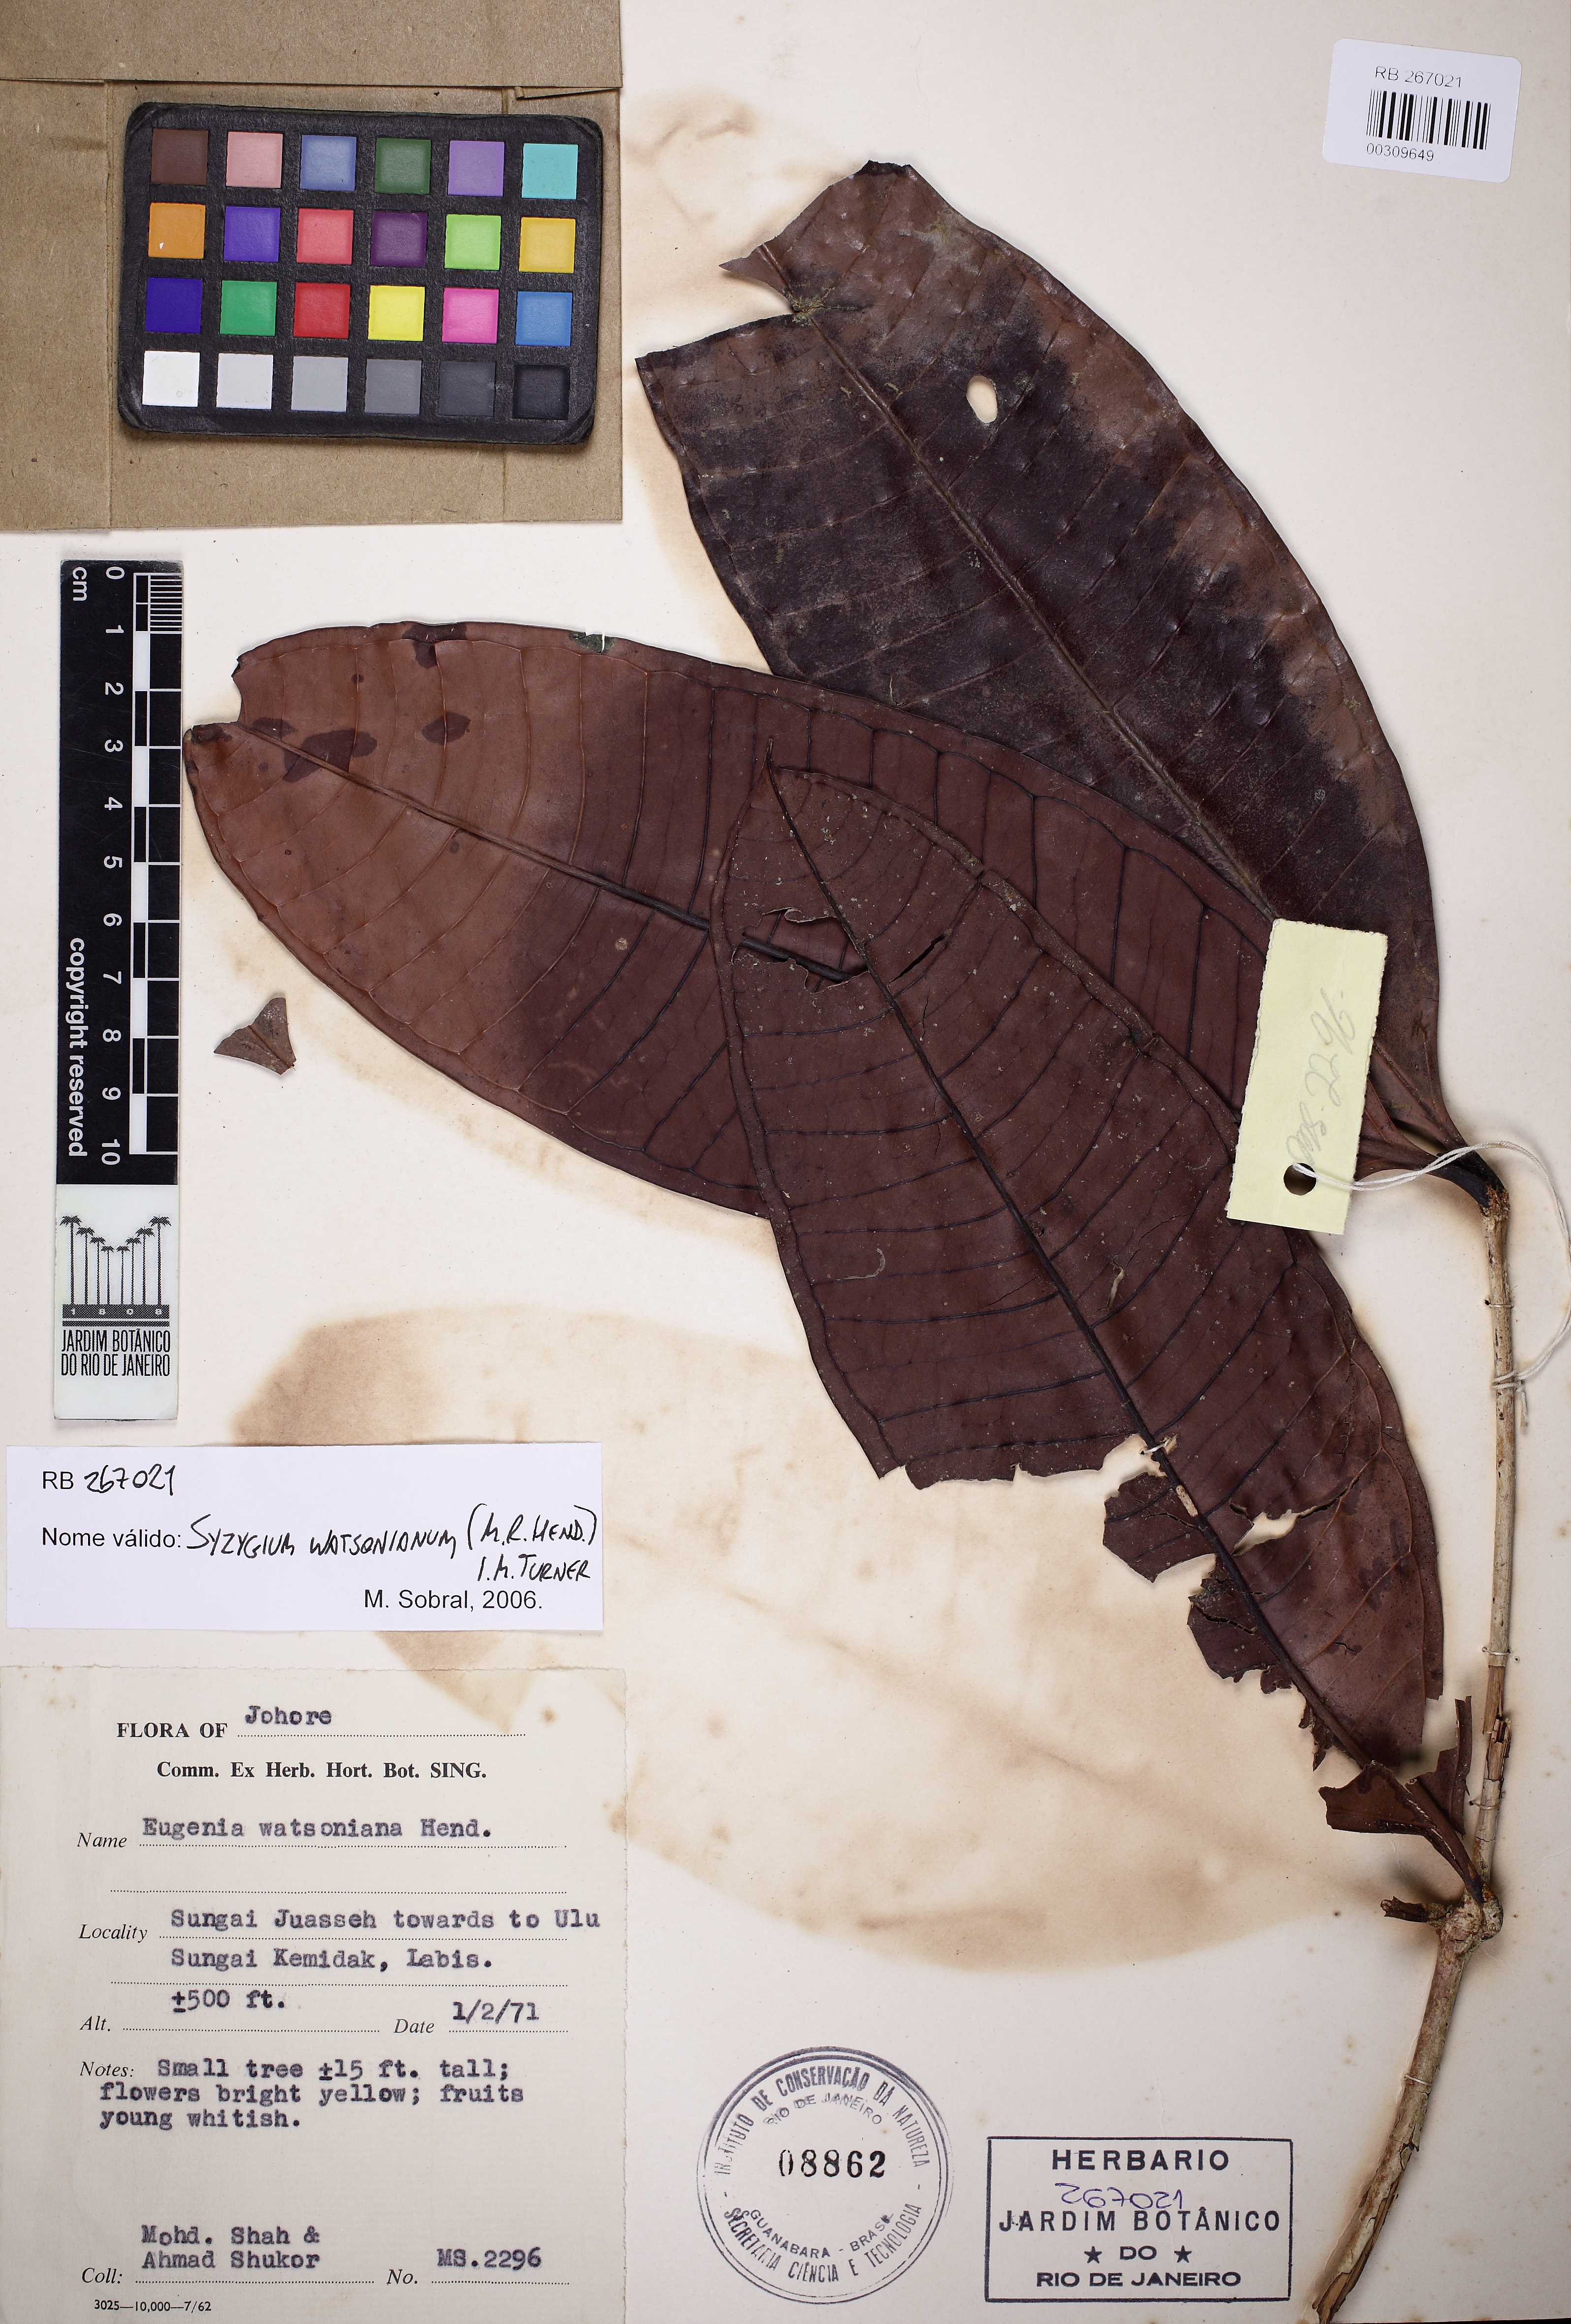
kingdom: Plantae
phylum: Tracheophyta
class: Magnoliopsida
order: Myrtales
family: Myrtaceae
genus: Syzygium
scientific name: Syzygium watsonianum
